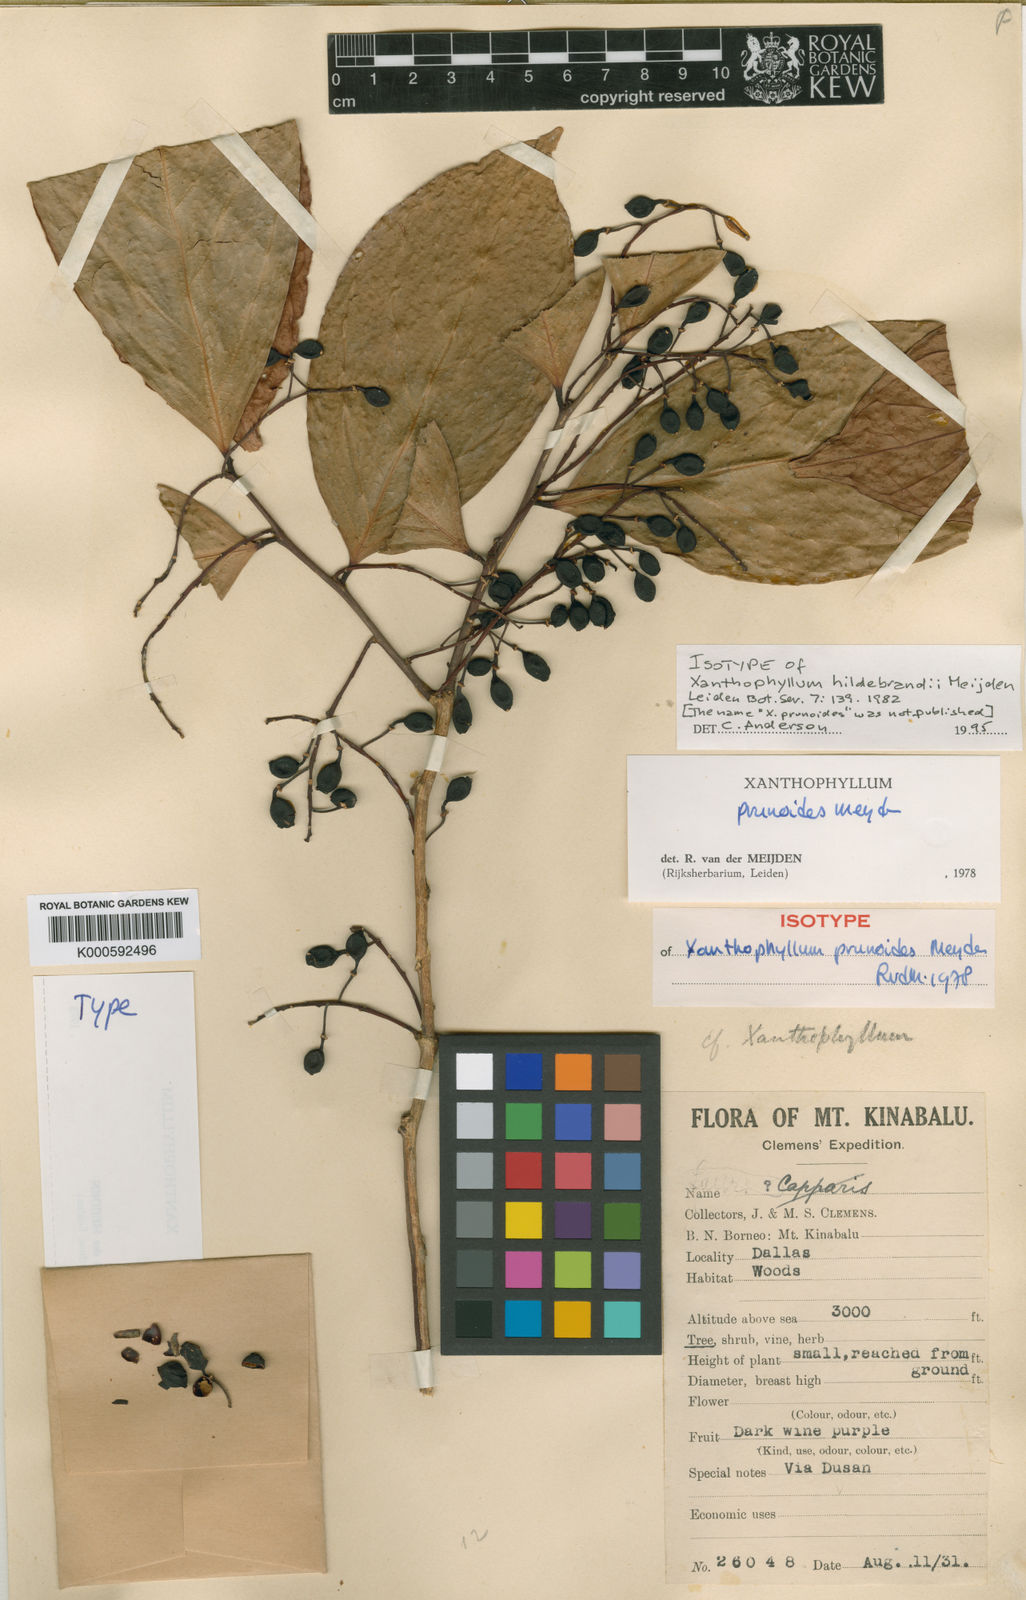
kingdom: Plantae
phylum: Tracheophyta
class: Magnoliopsida
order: Fabales
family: Polygalaceae
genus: Xanthophyllum
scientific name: Xanthophyllum hildebrandii
